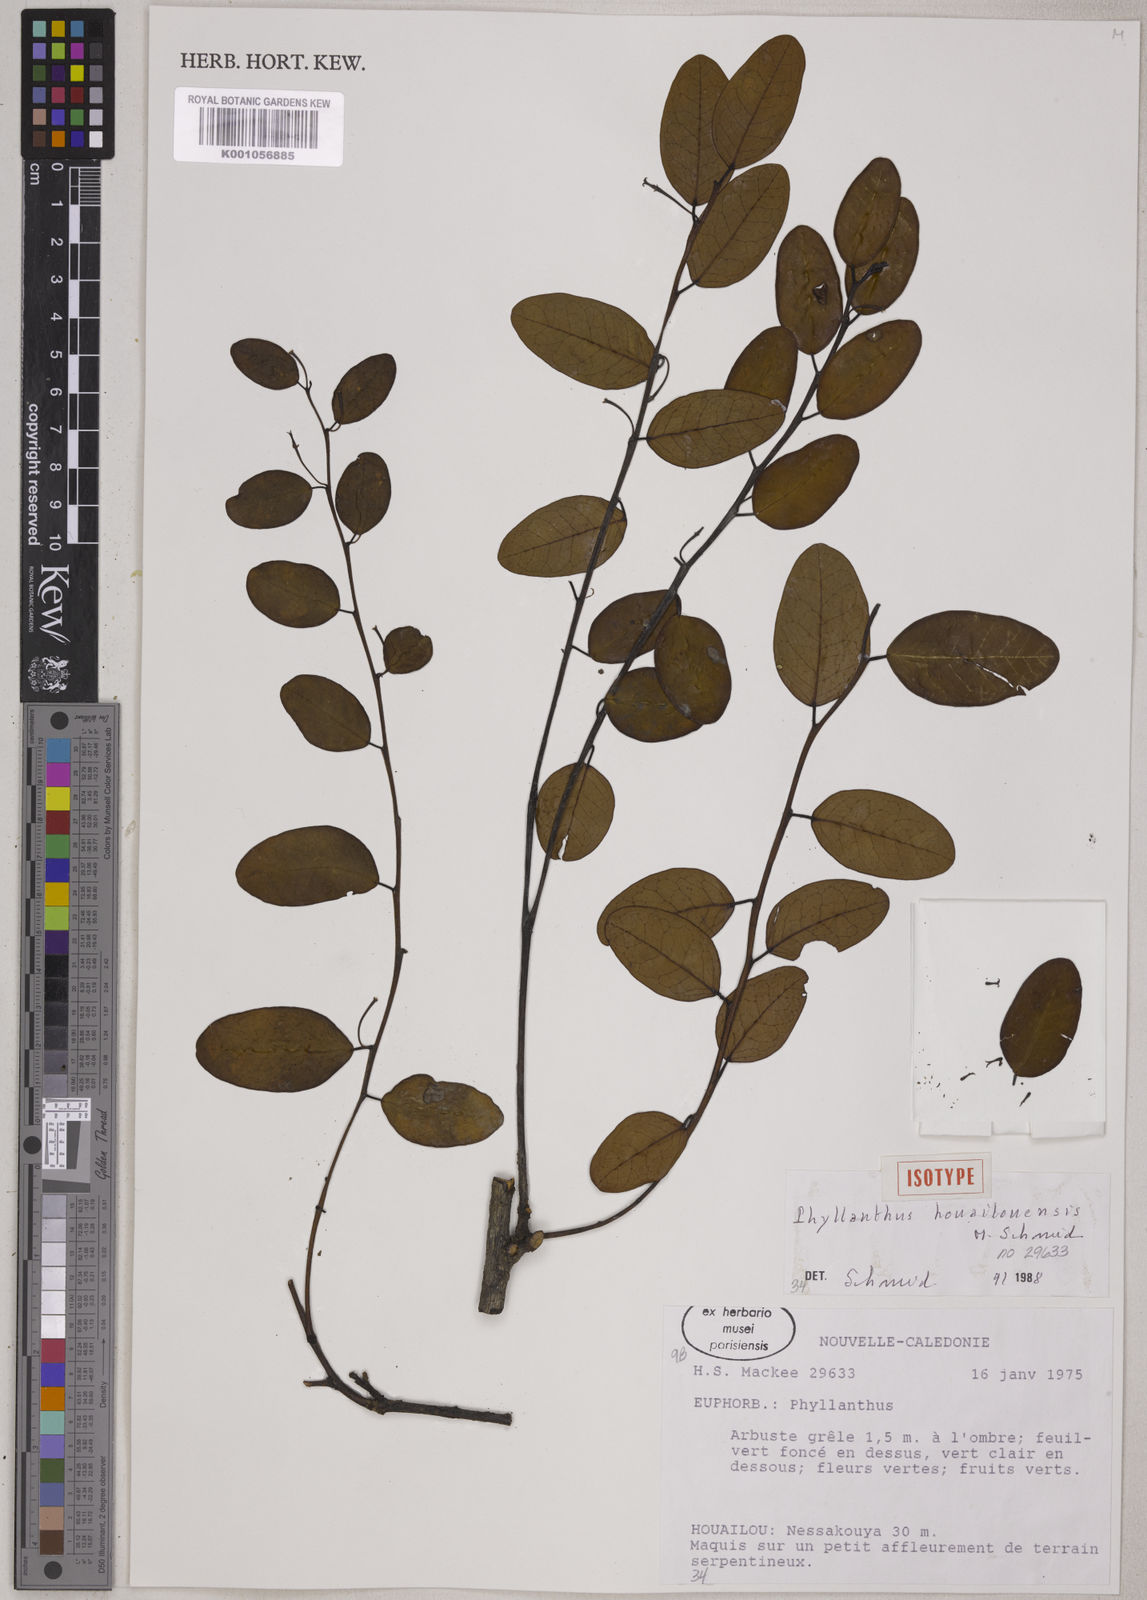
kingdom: Plantae
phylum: Tracheophyta
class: Magnoliopsida
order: Malpighiales
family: Phyllanthaceae
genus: Phyllanthus
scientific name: Phyllanthus houailouensis
